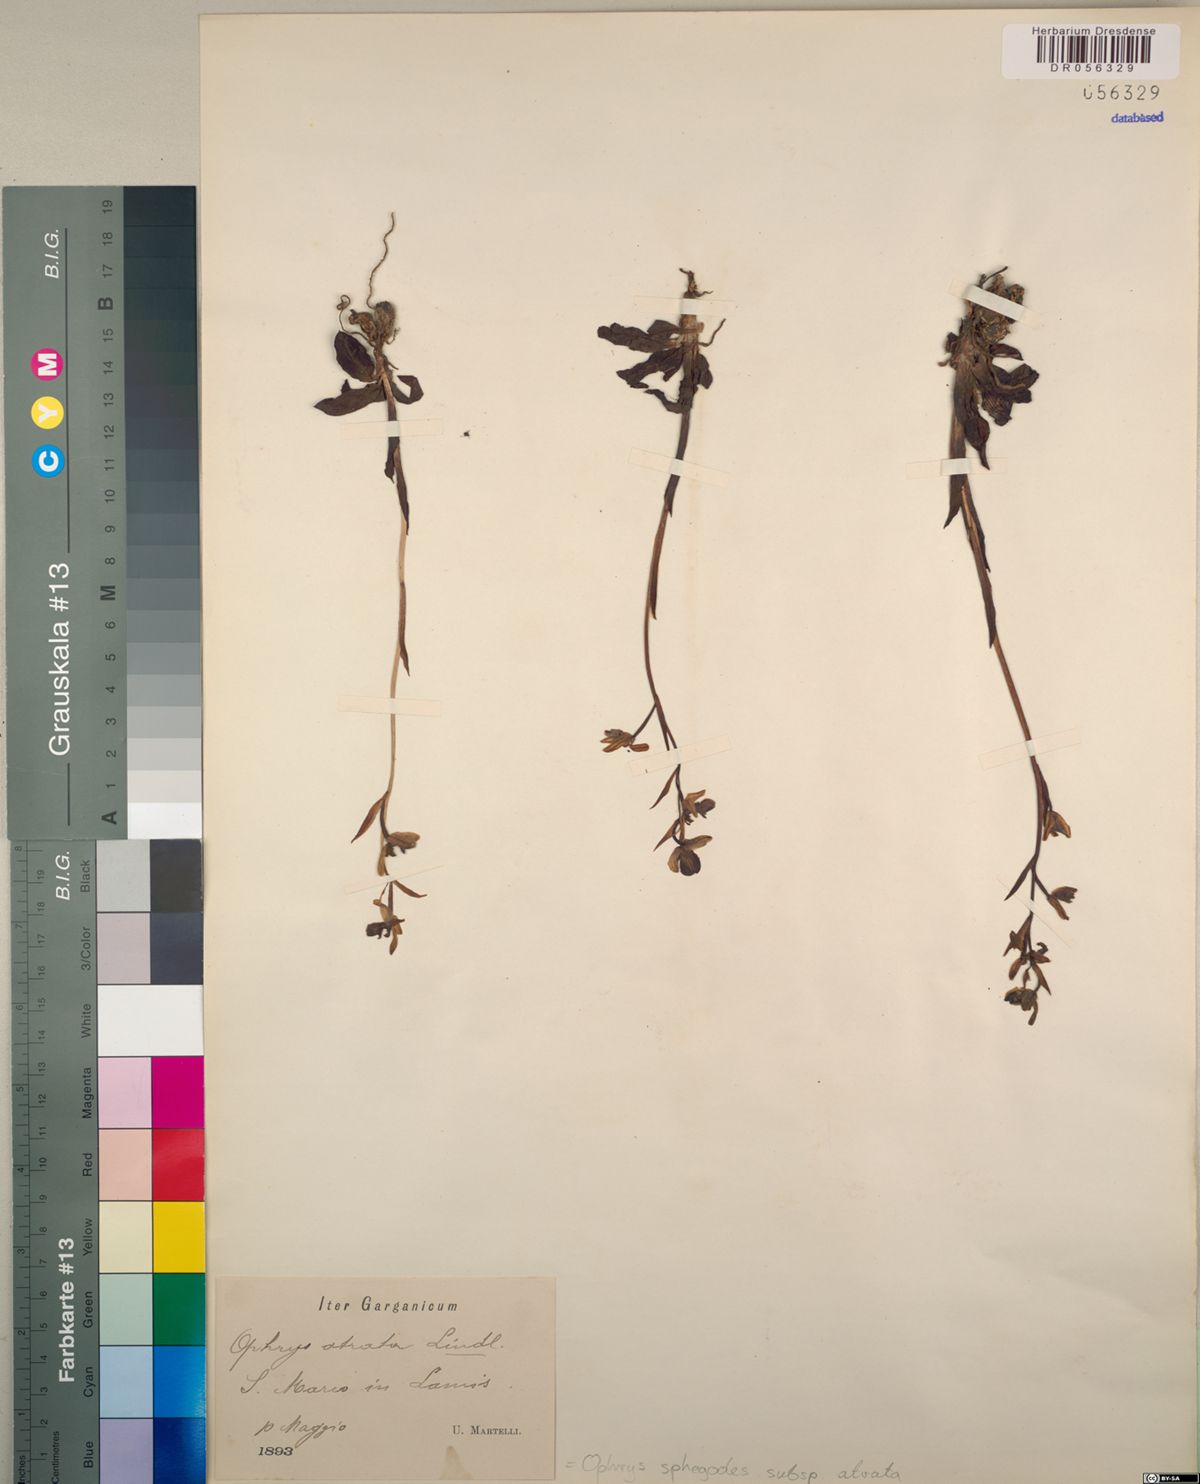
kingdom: Plantae
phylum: Tracheophyta
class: Liliopsida
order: Asparagales
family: Orchidaceae
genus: Ophrys
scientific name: Ophrys sphegodes
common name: Early spider-orchid
